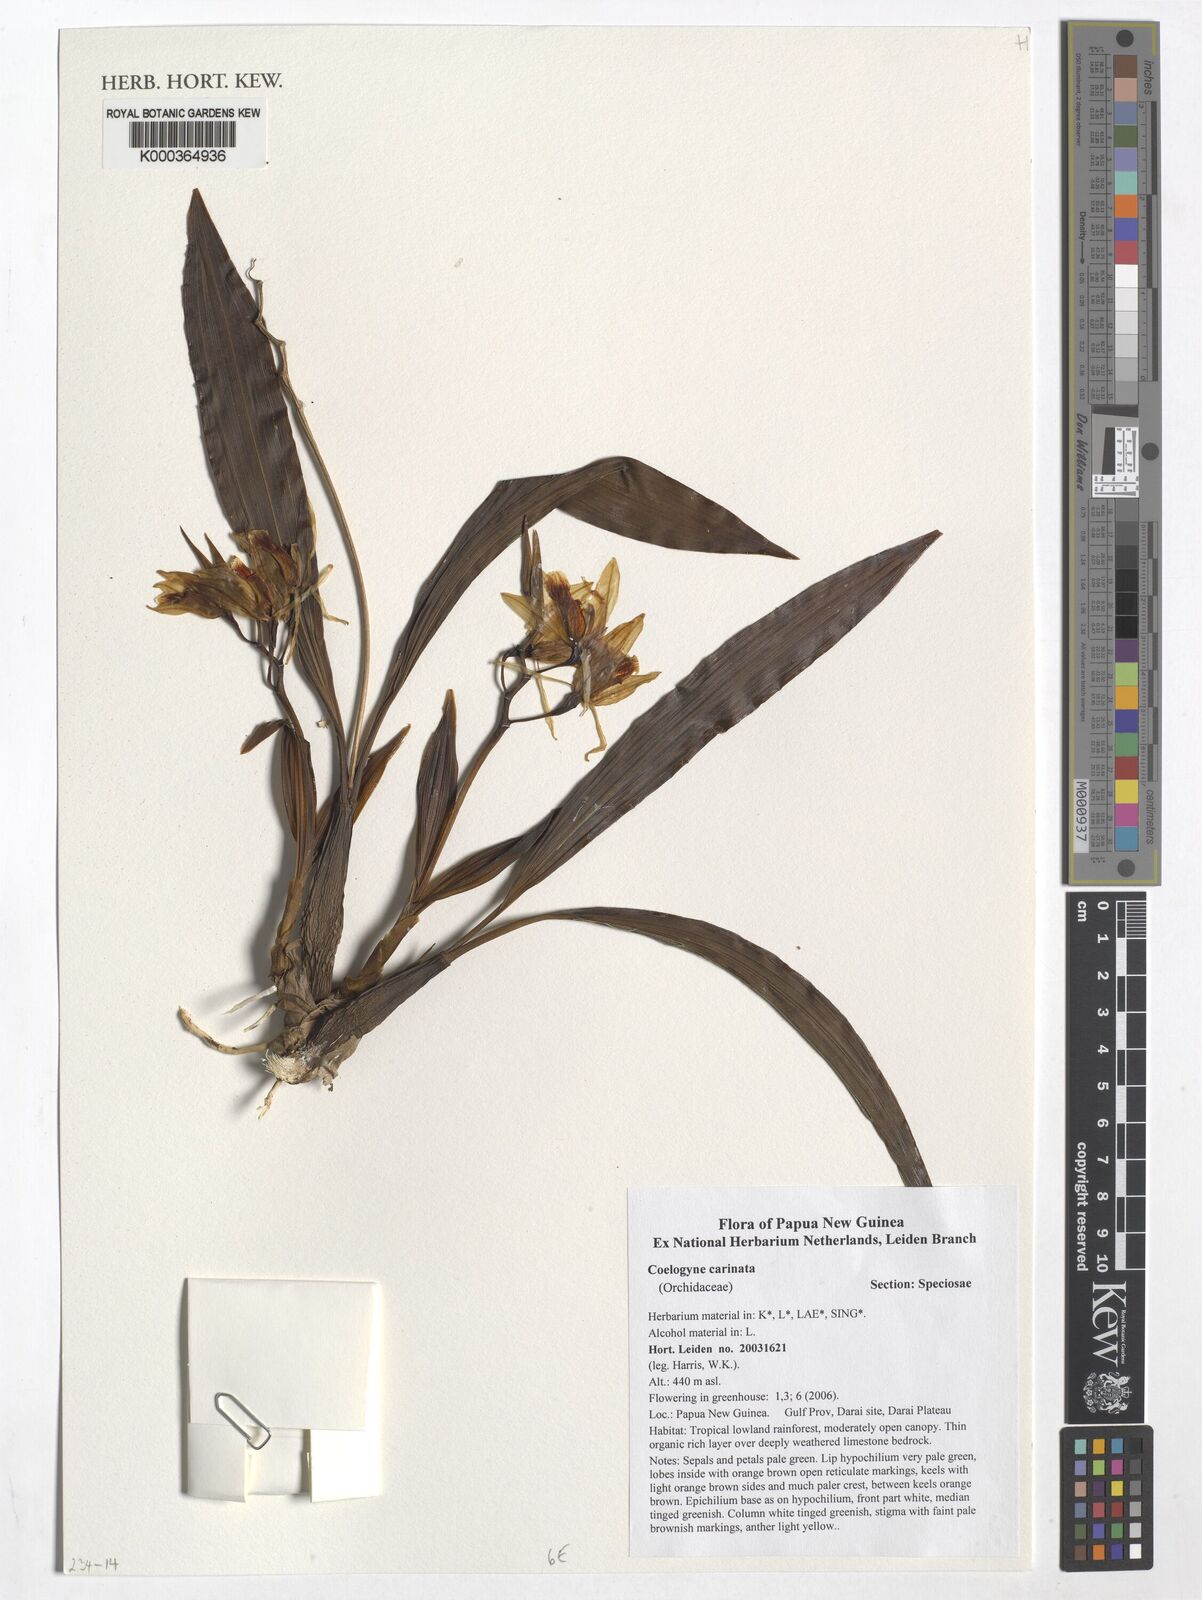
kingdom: Plantae
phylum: Tracheophyta
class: Liliopsida
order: Asparagales
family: Orchidaceae
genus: Coelogyne
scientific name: Coelogyne carinata
